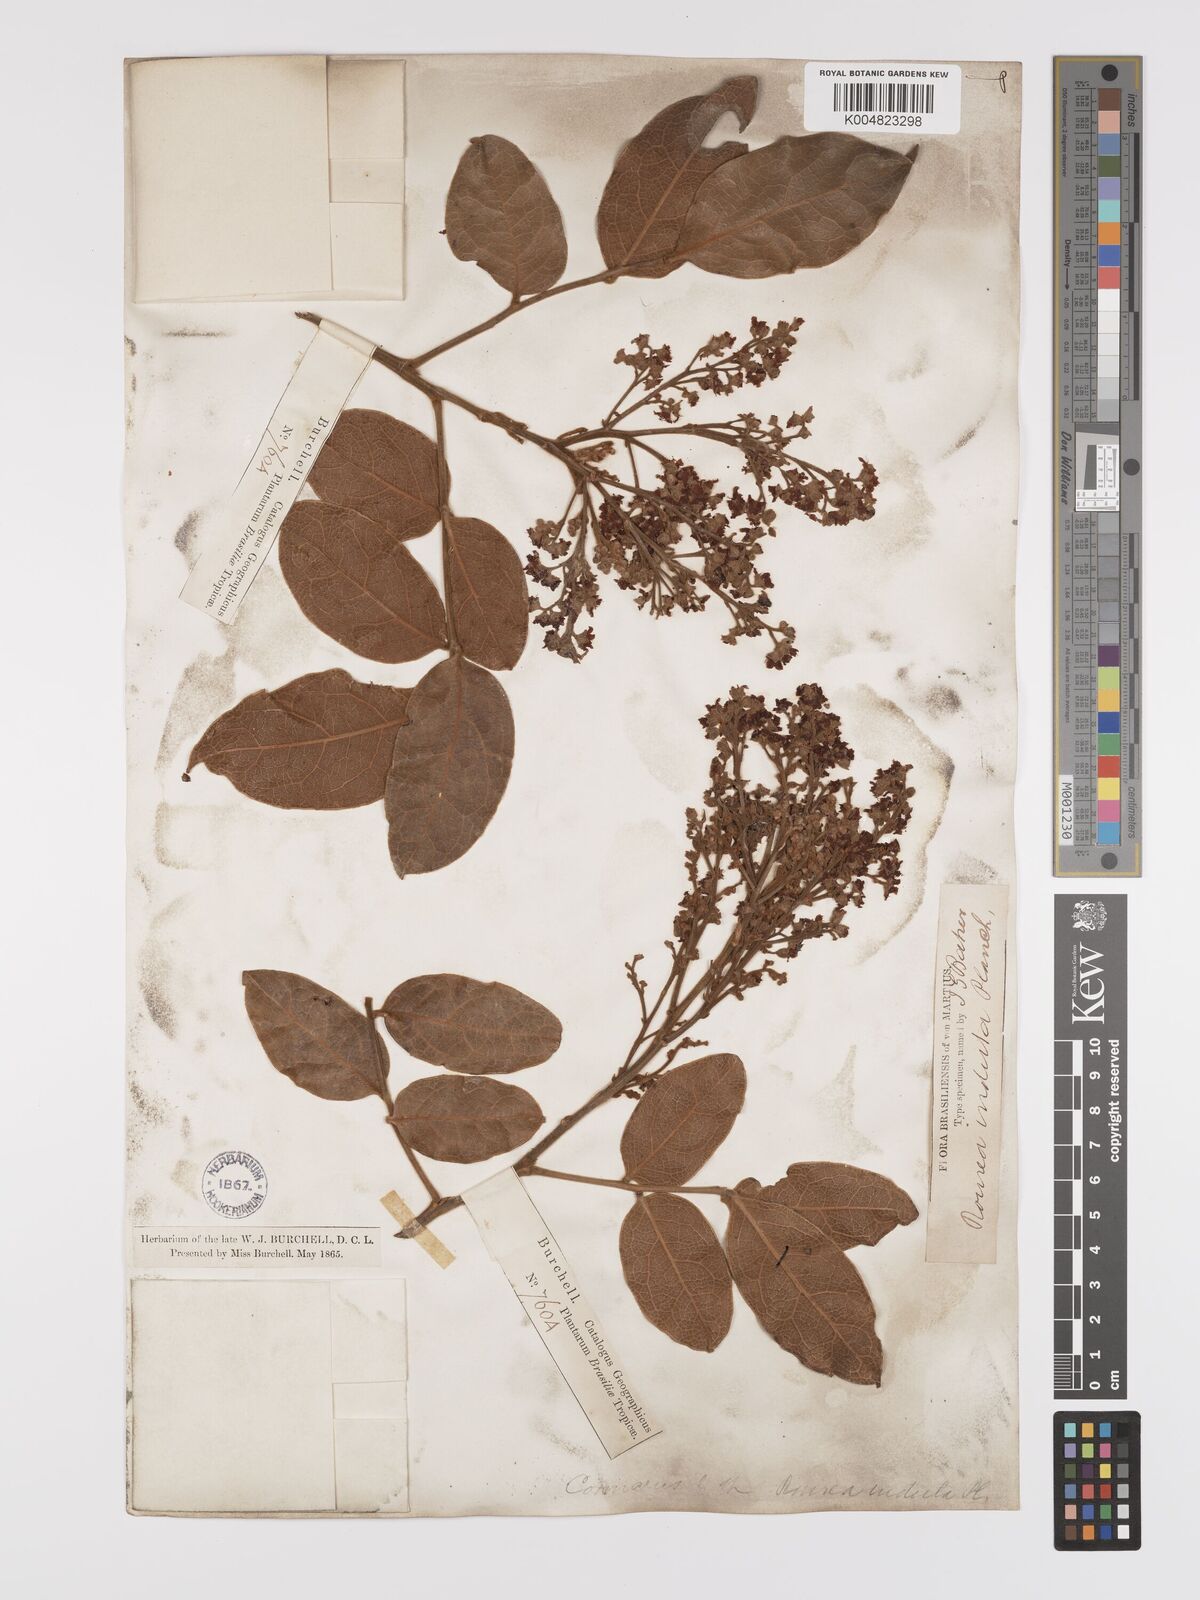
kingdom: Plantae
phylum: Tracheophyta
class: Magnoliopsida
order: Oxalidales
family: Connaraceae
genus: Rourea
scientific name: Rourea induta
